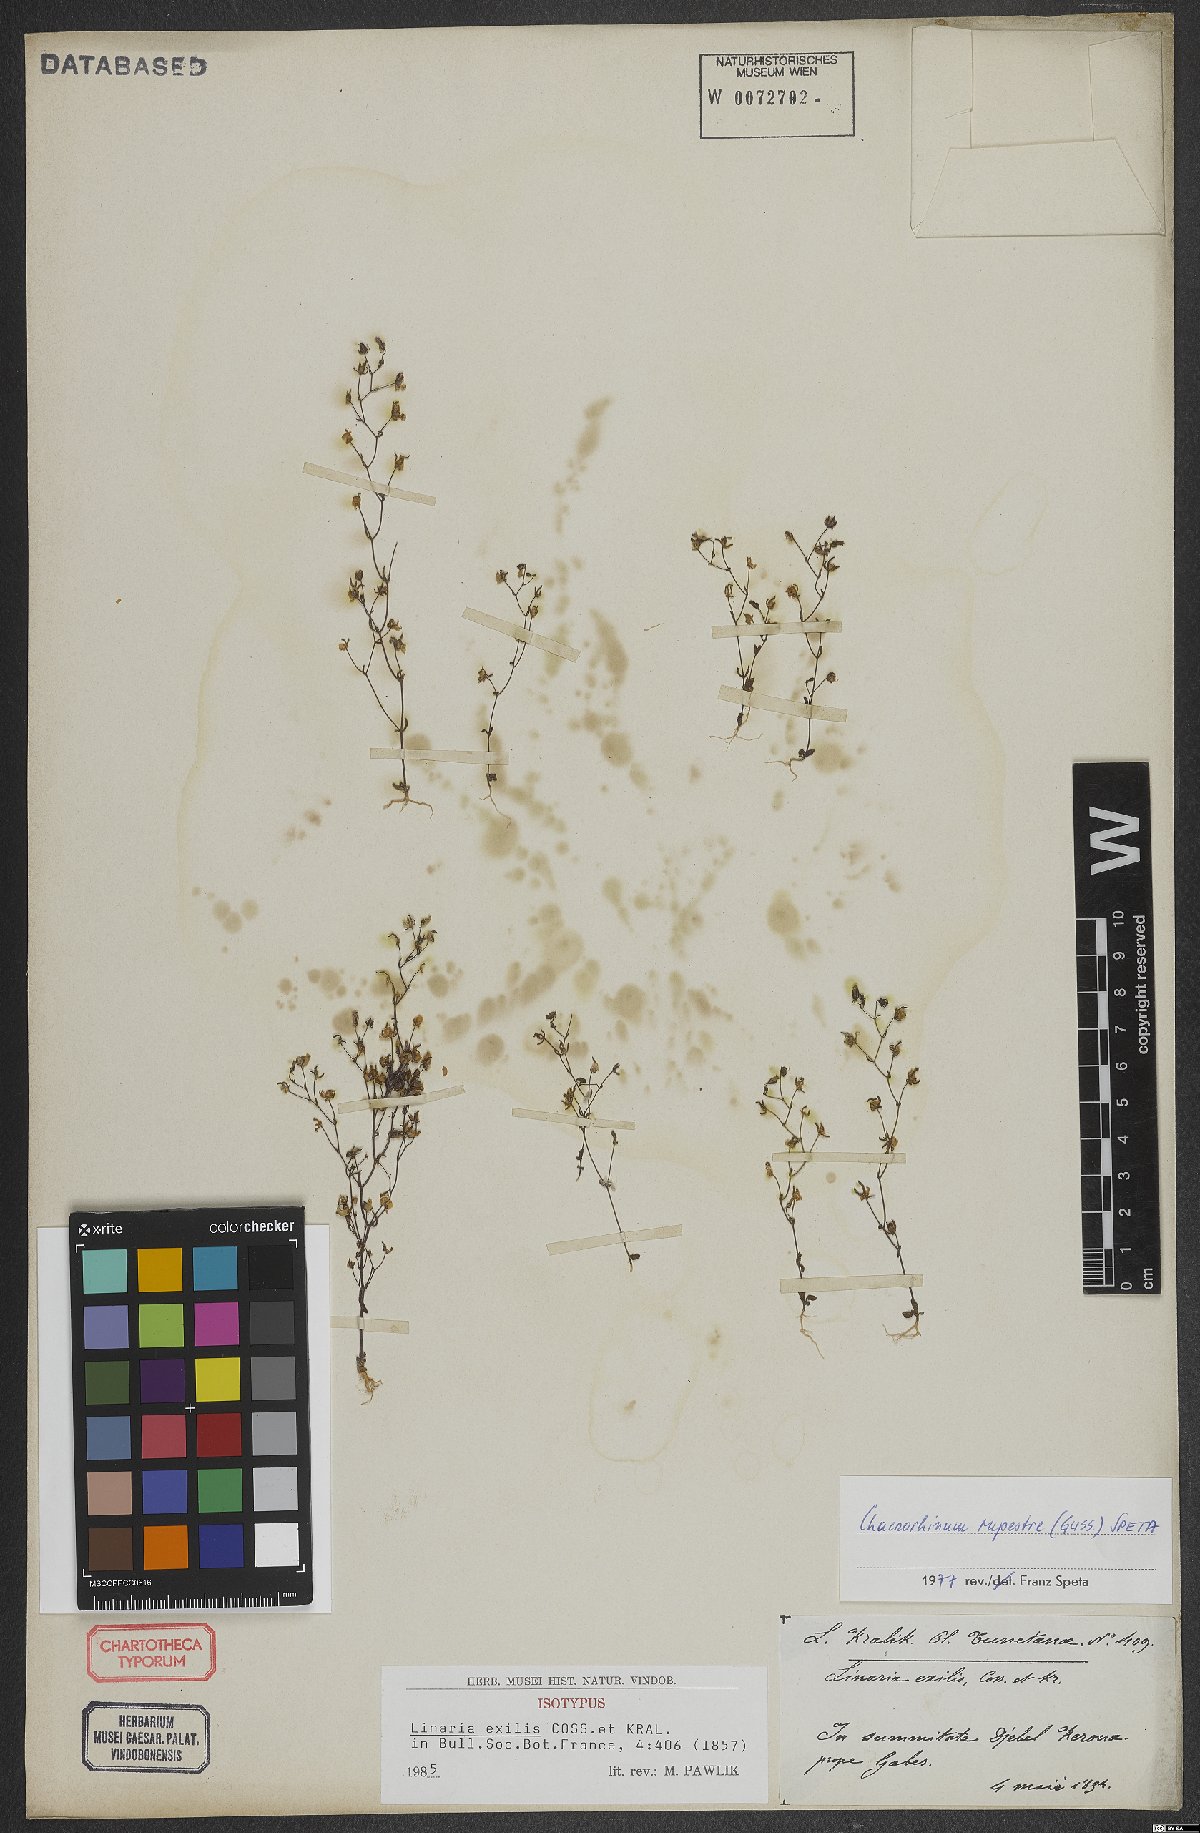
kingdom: Plantae
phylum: Tracheophyta
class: Magnoliopsida
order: Lamiales
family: Plantaginaceae
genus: Chaenorhinum
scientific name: Chaenorhinum rupestre
